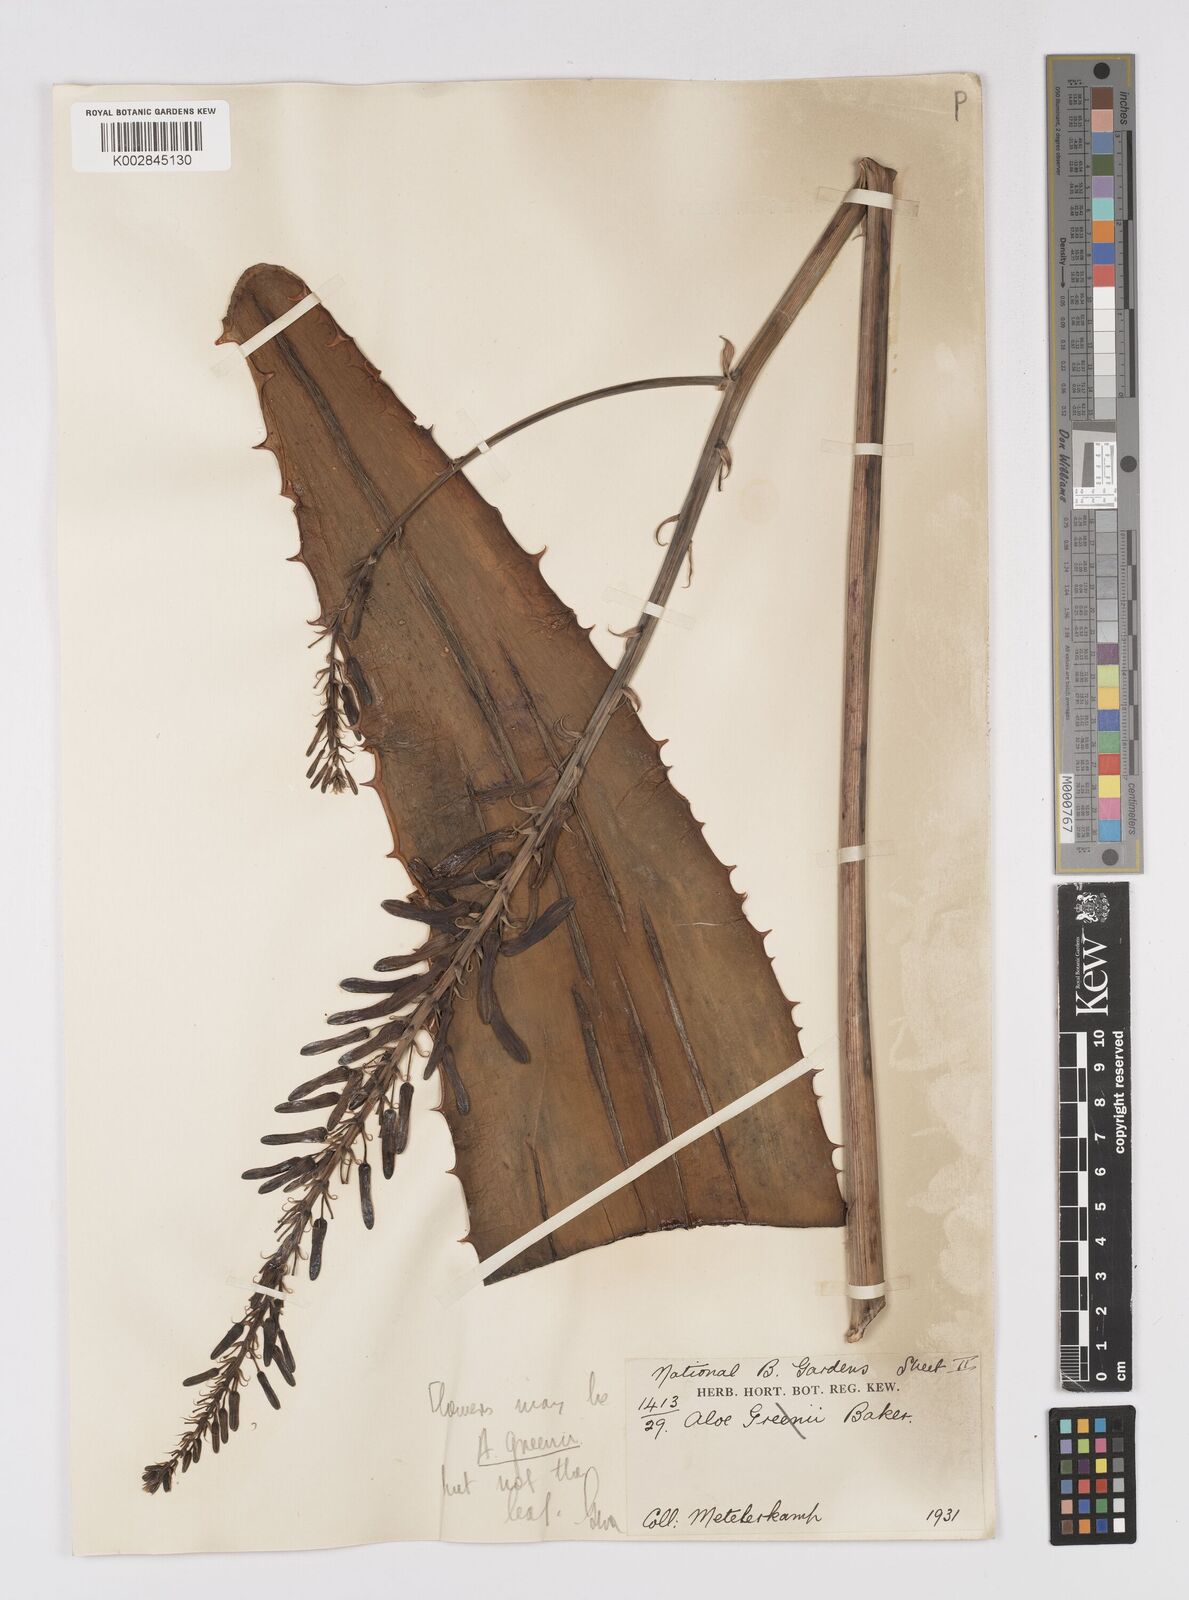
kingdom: Plantae
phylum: Tracheophyta
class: Liliopsida
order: Asparagales
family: Asphodelaceae
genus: Aloe
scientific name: Aloe greenii
